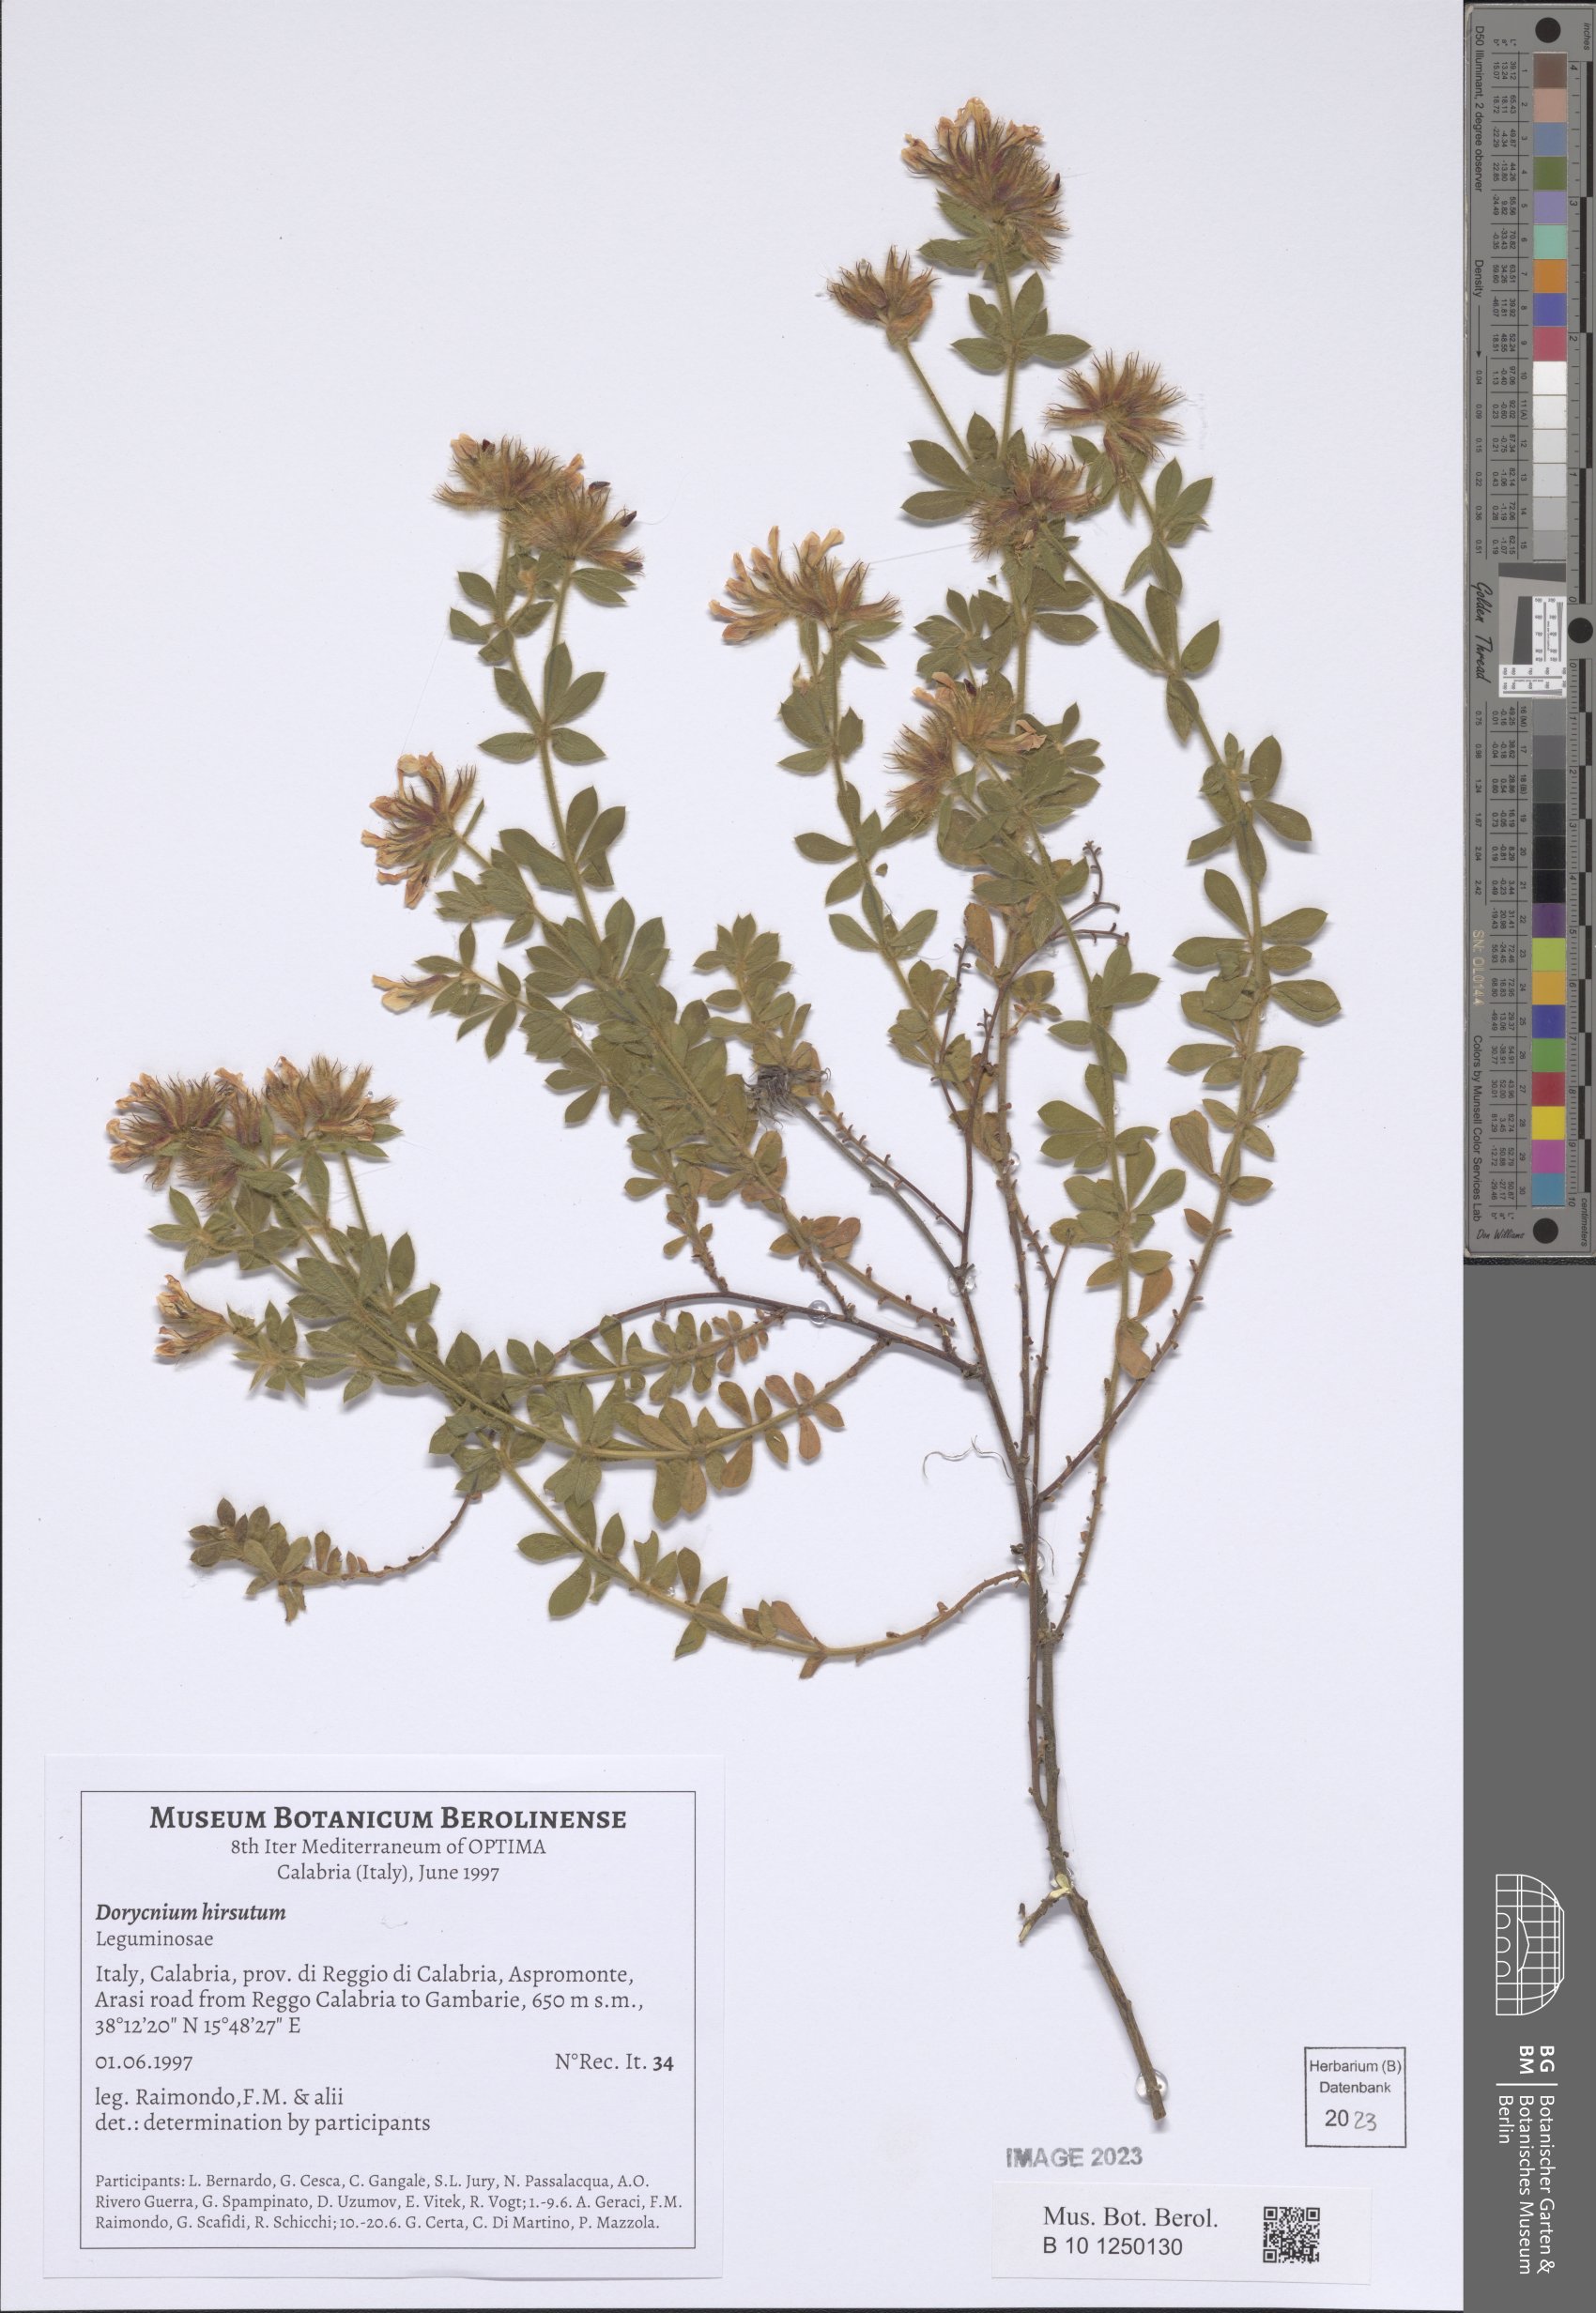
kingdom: Plantae
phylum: Tracheophyta
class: Magnoliopsida
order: Fabales
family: Fabaceae
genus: Lotus
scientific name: Lotus hirsutus
